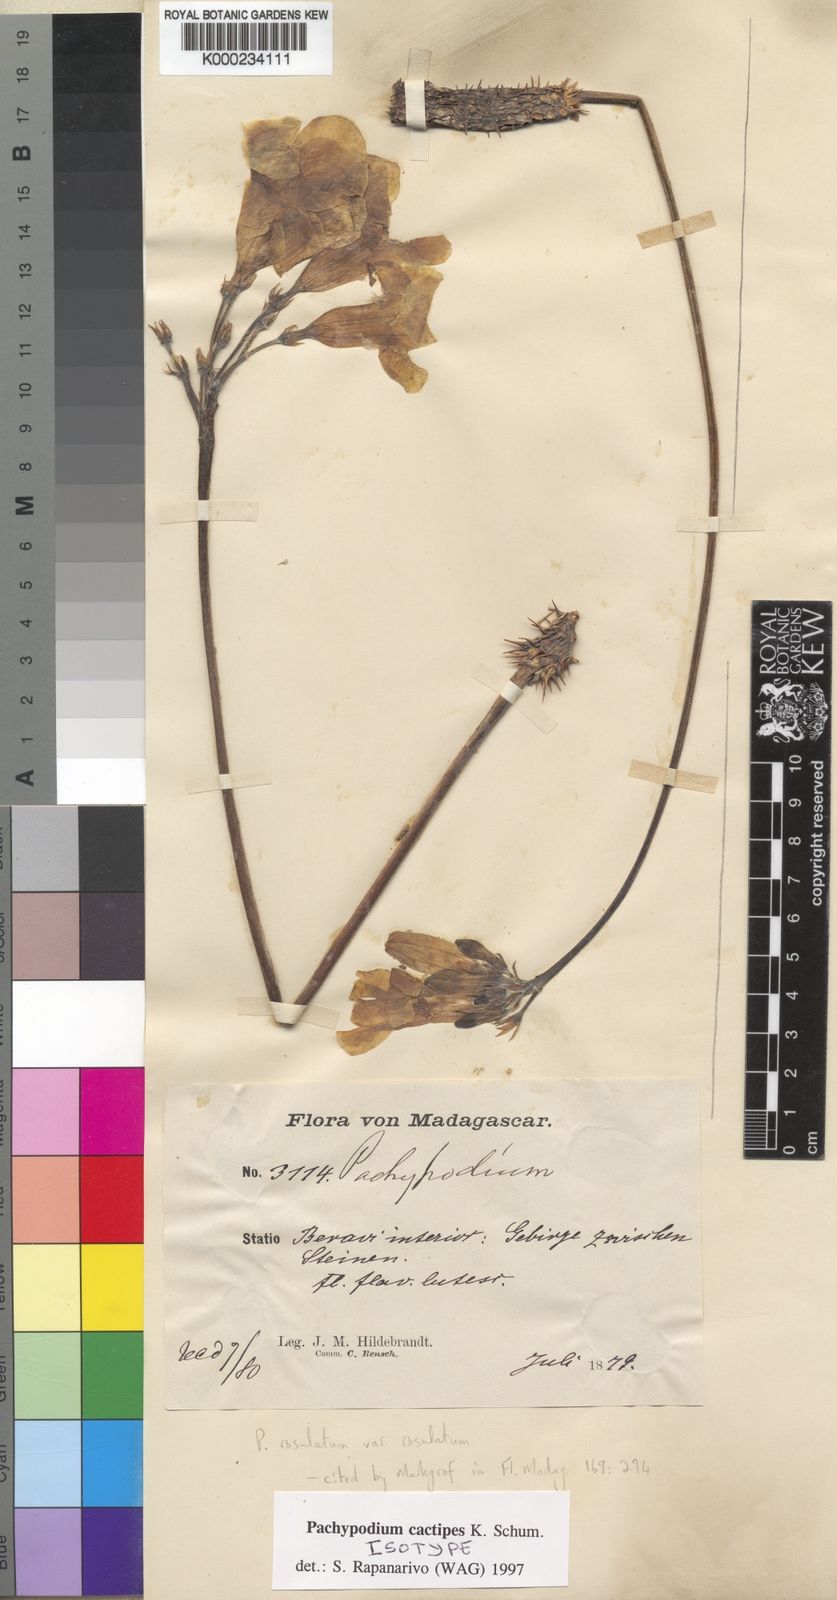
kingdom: Plantae
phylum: Tracheophyta
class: Magnoliopsida
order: Gentianales
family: Apocynaceae
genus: Pachypodium
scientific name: Pachypodium rosulatum
